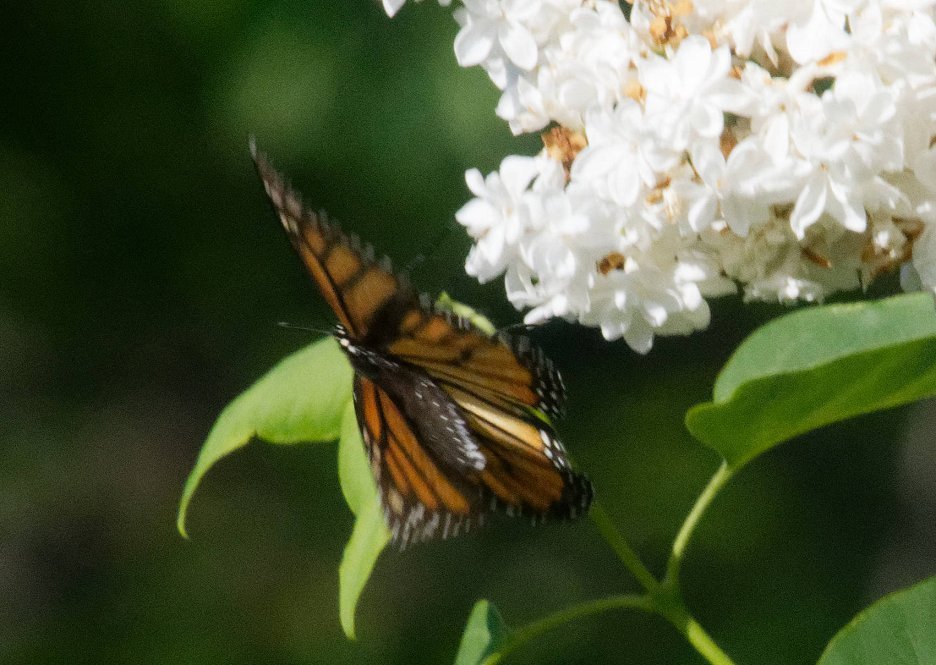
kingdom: Animalia
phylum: Arthropoda
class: Insecta
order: Lepidoptera
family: Nymphalidae
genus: Danaus
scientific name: Danaus plexippus
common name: Monarch
